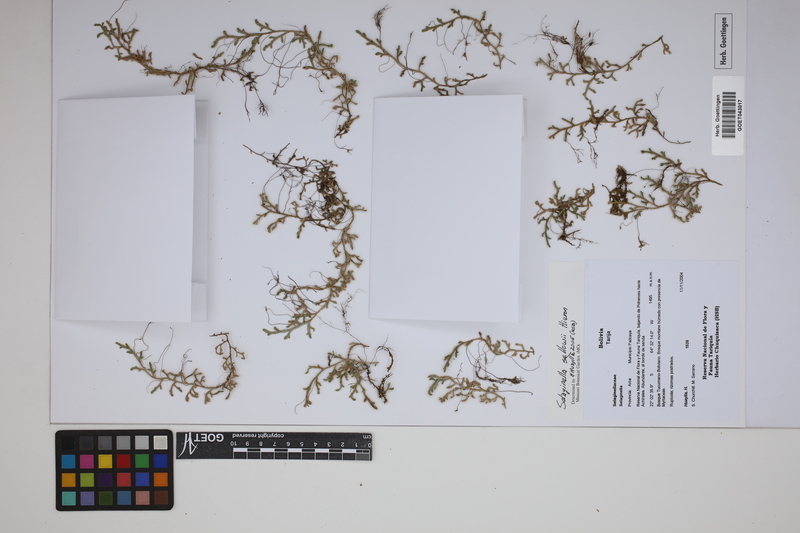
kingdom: Plantae
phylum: Tracheophyta
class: Lycopodiopsida
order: Selaginellales
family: Selaginellaceae
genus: Selaginella
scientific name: Selaginella sellowii
